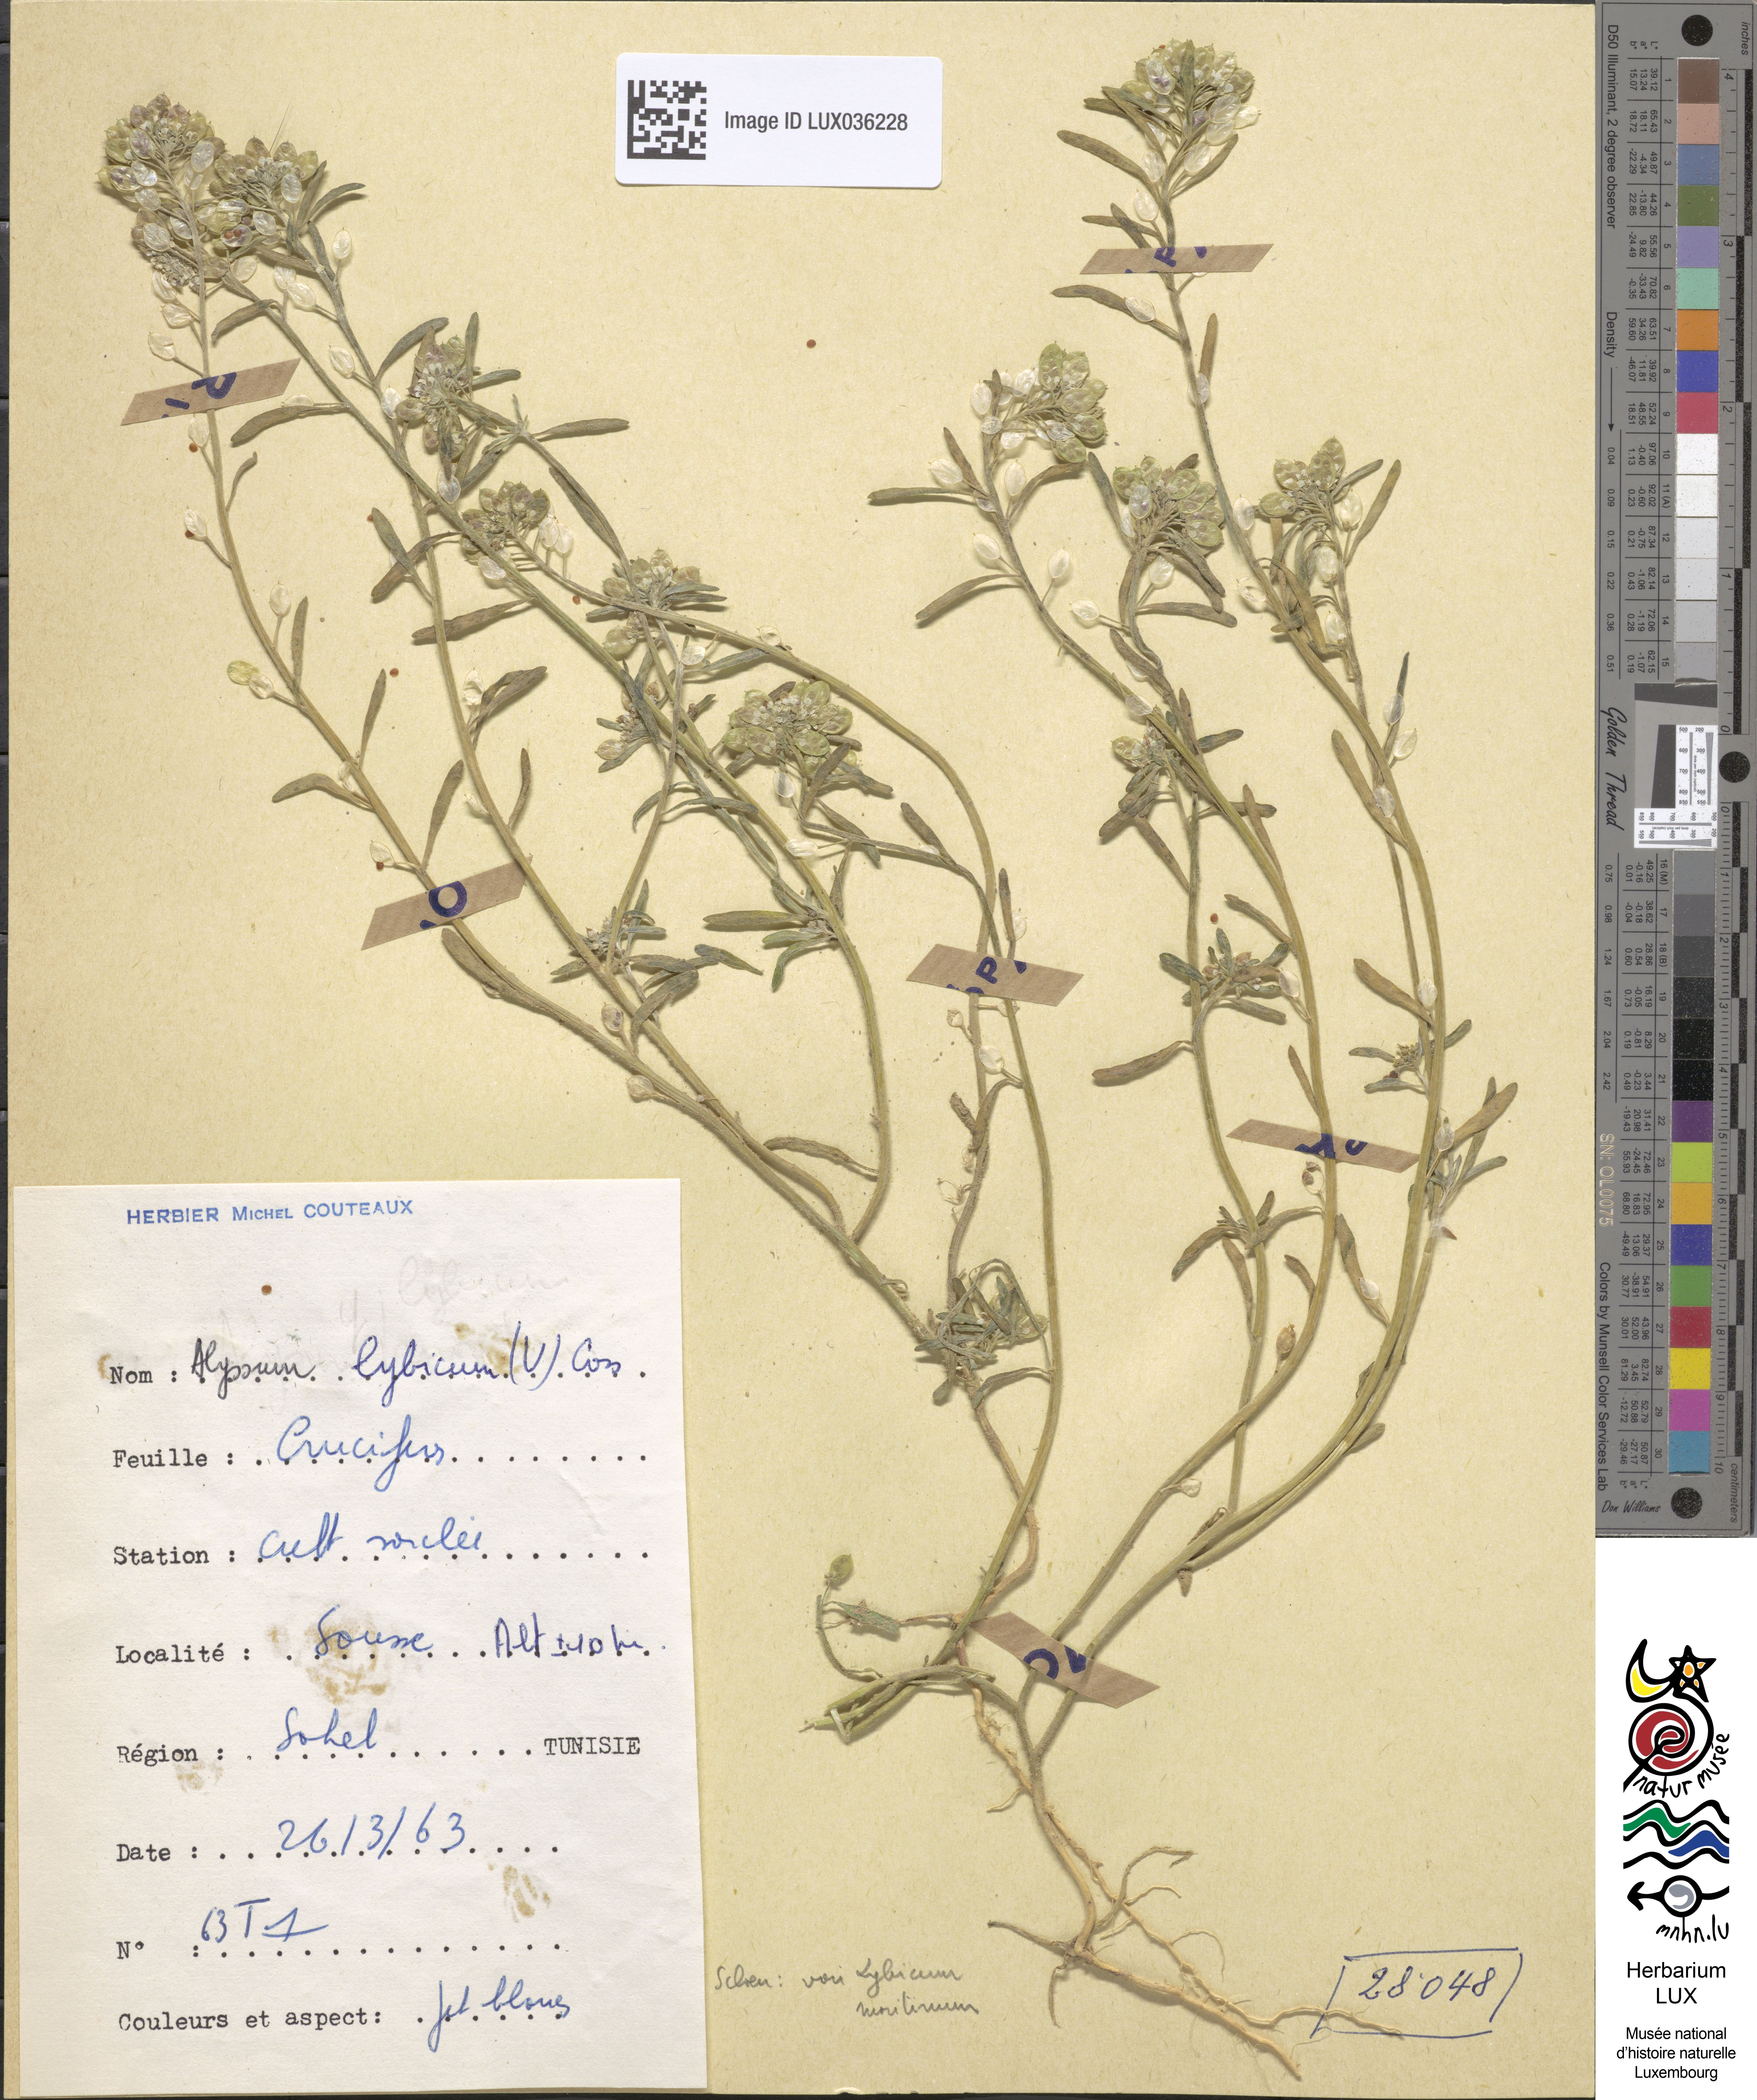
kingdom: Plantae
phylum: Tracheophyta
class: Magnoliopsida
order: Brassicales
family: Brassicaceae
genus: Lobularia
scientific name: Lobularia libyca
